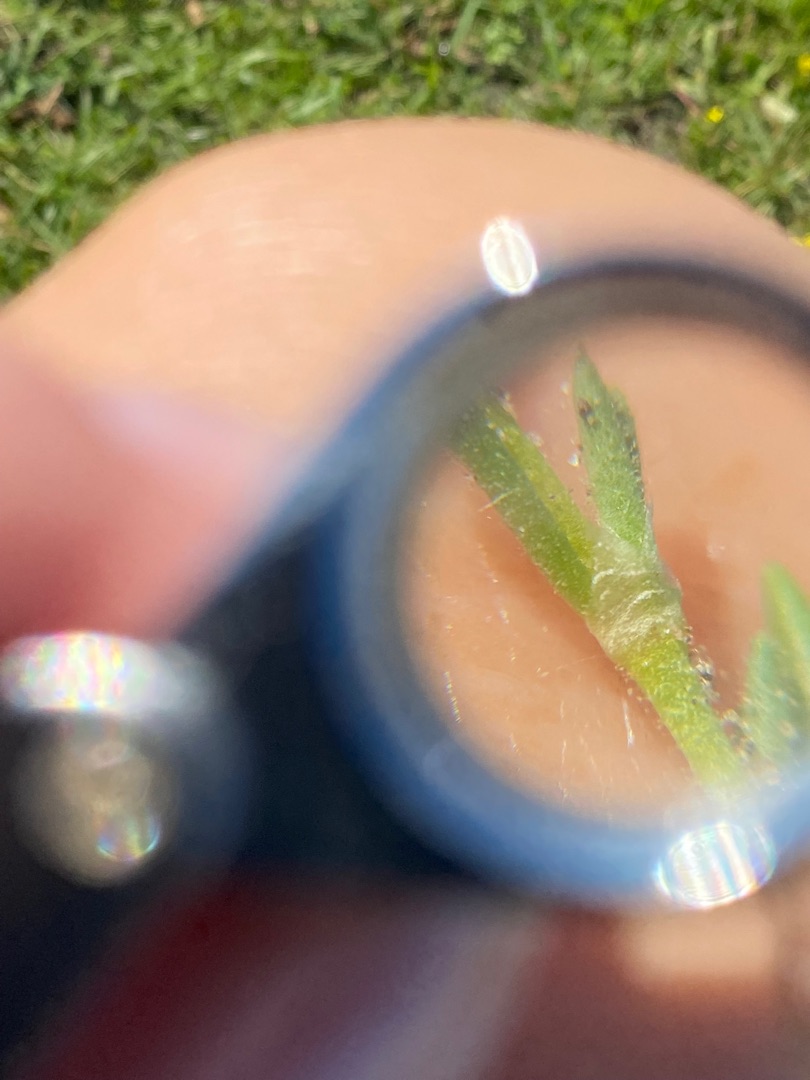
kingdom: Plantae
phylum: Tracheophyta
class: Magnoliopsida
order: Caryophyllales
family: Caryophyllaceae
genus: Spergularia
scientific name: Spergularia
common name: Hindeknæslægten
